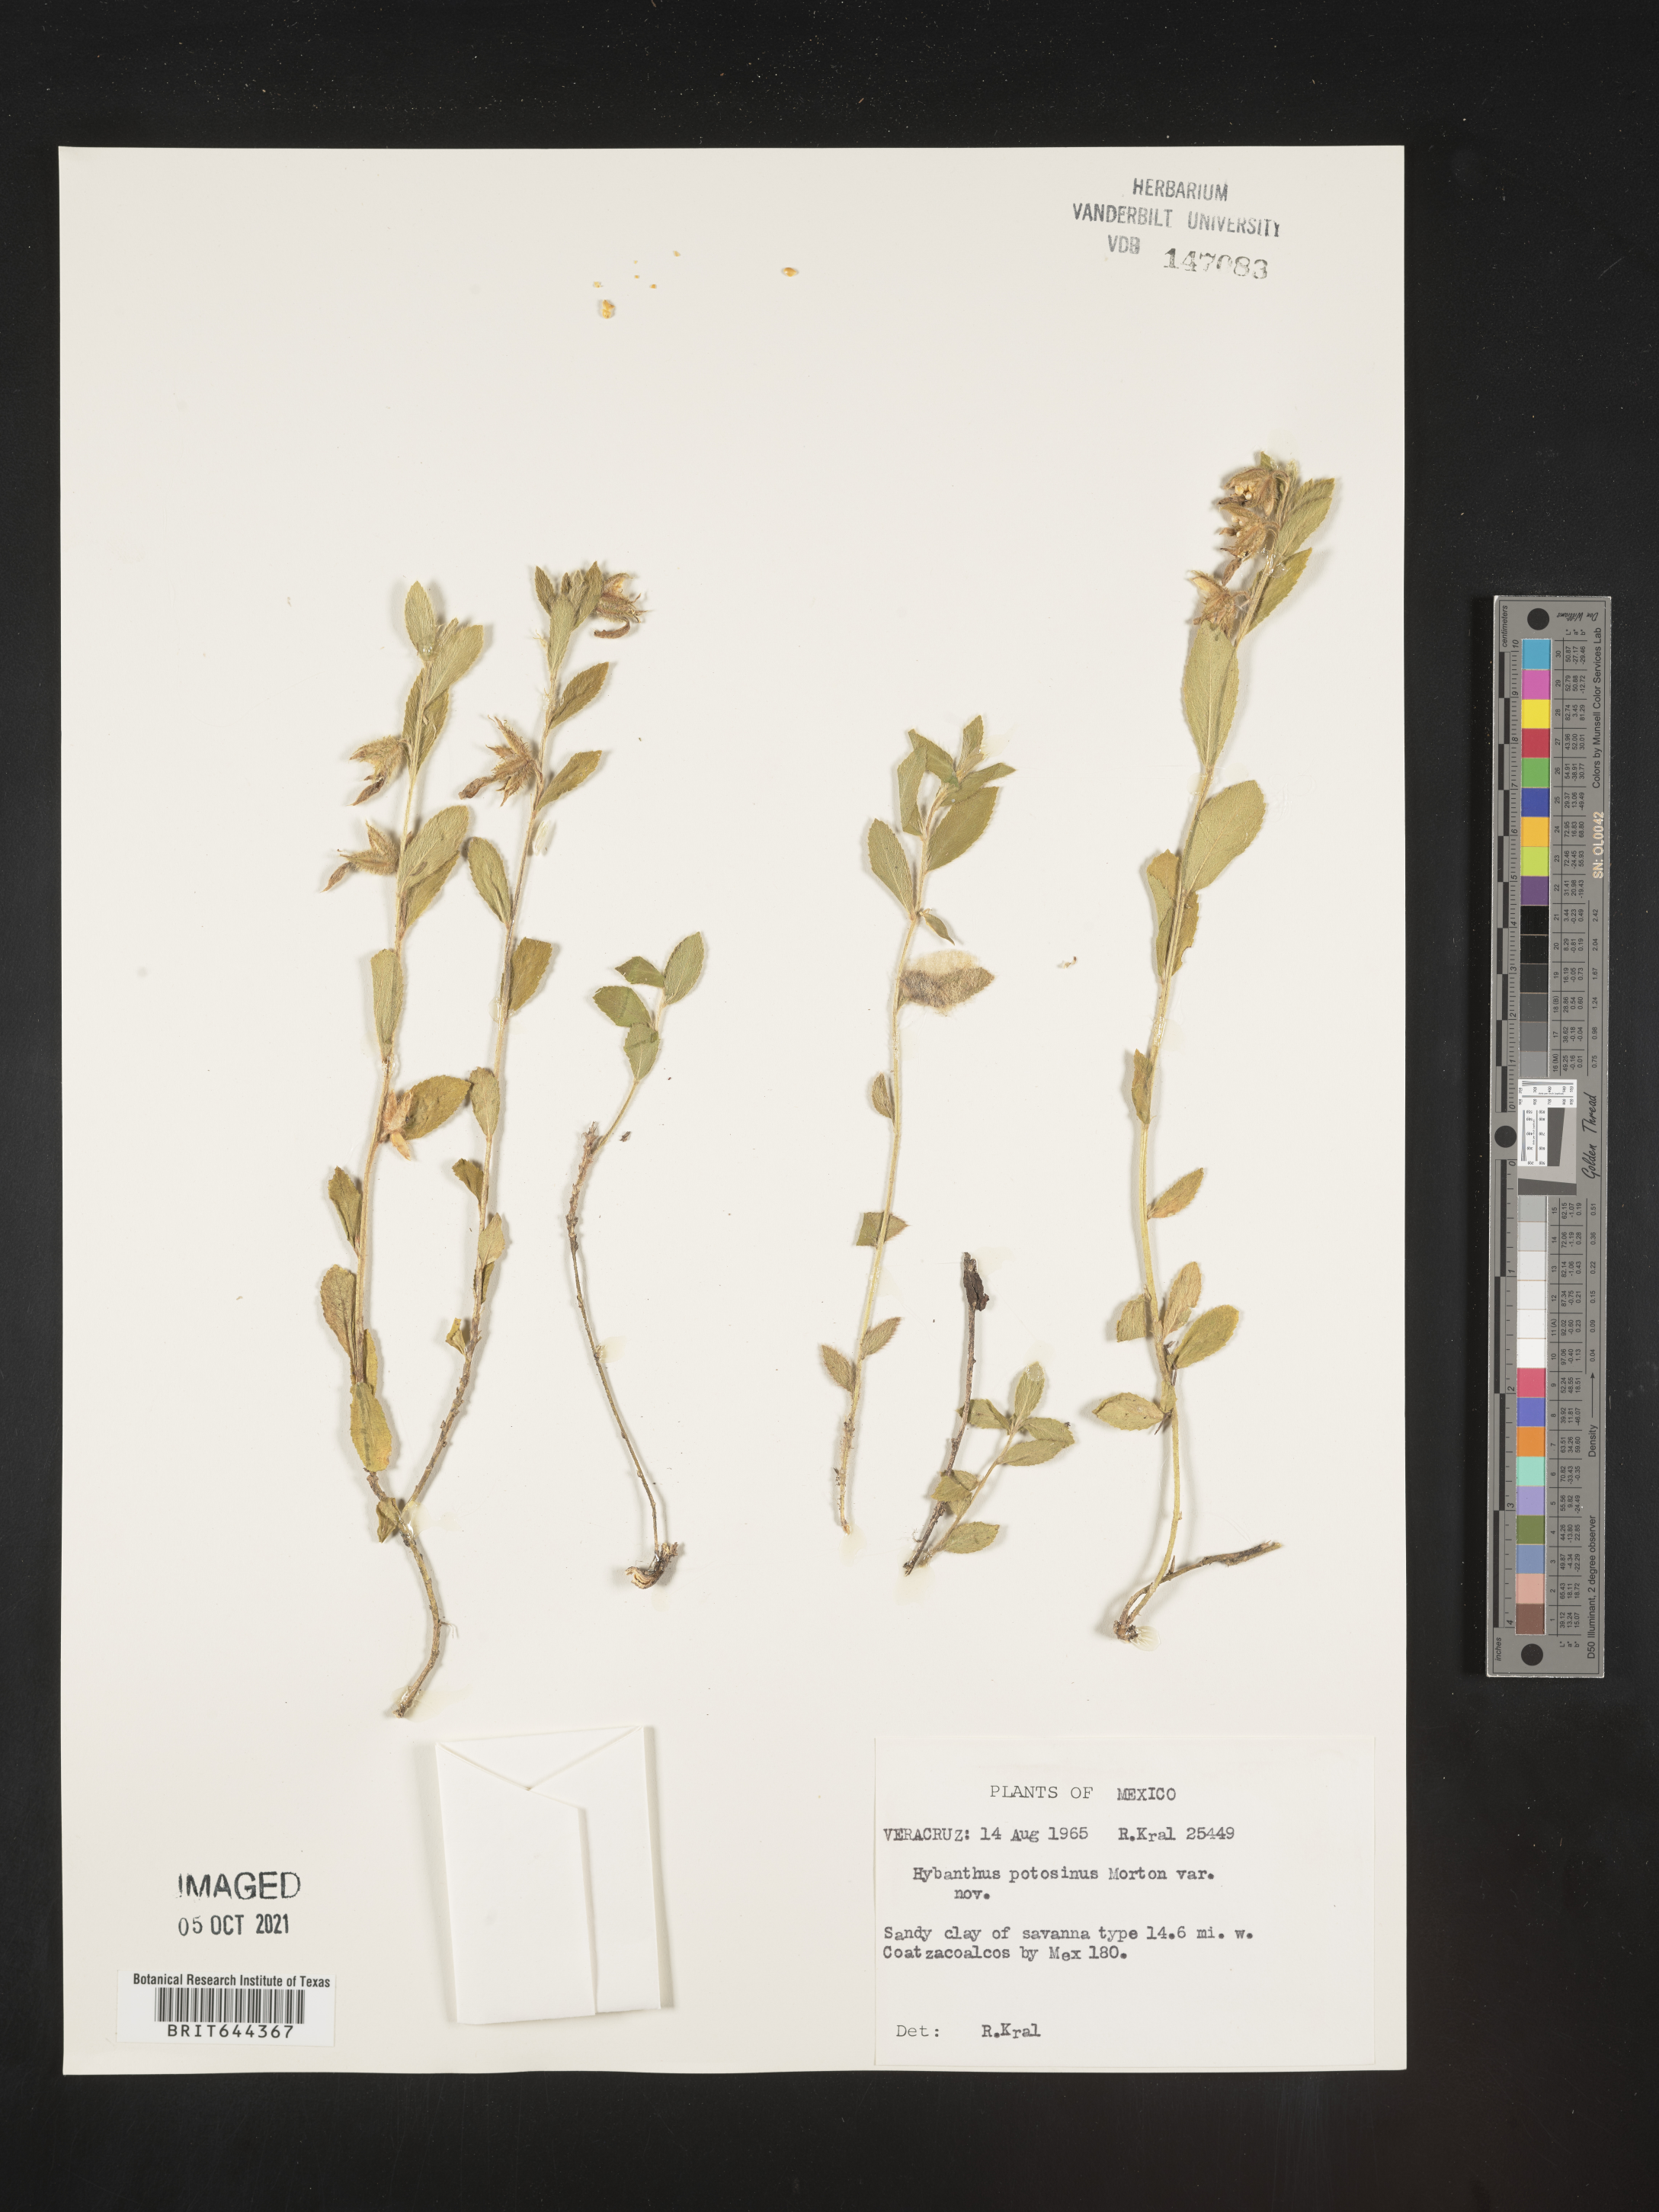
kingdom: Plantae
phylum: Tracheophyta
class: Magnoliopsida
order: Malpighiales
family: Violaceae
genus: Hybanthus
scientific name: Hybanthus
